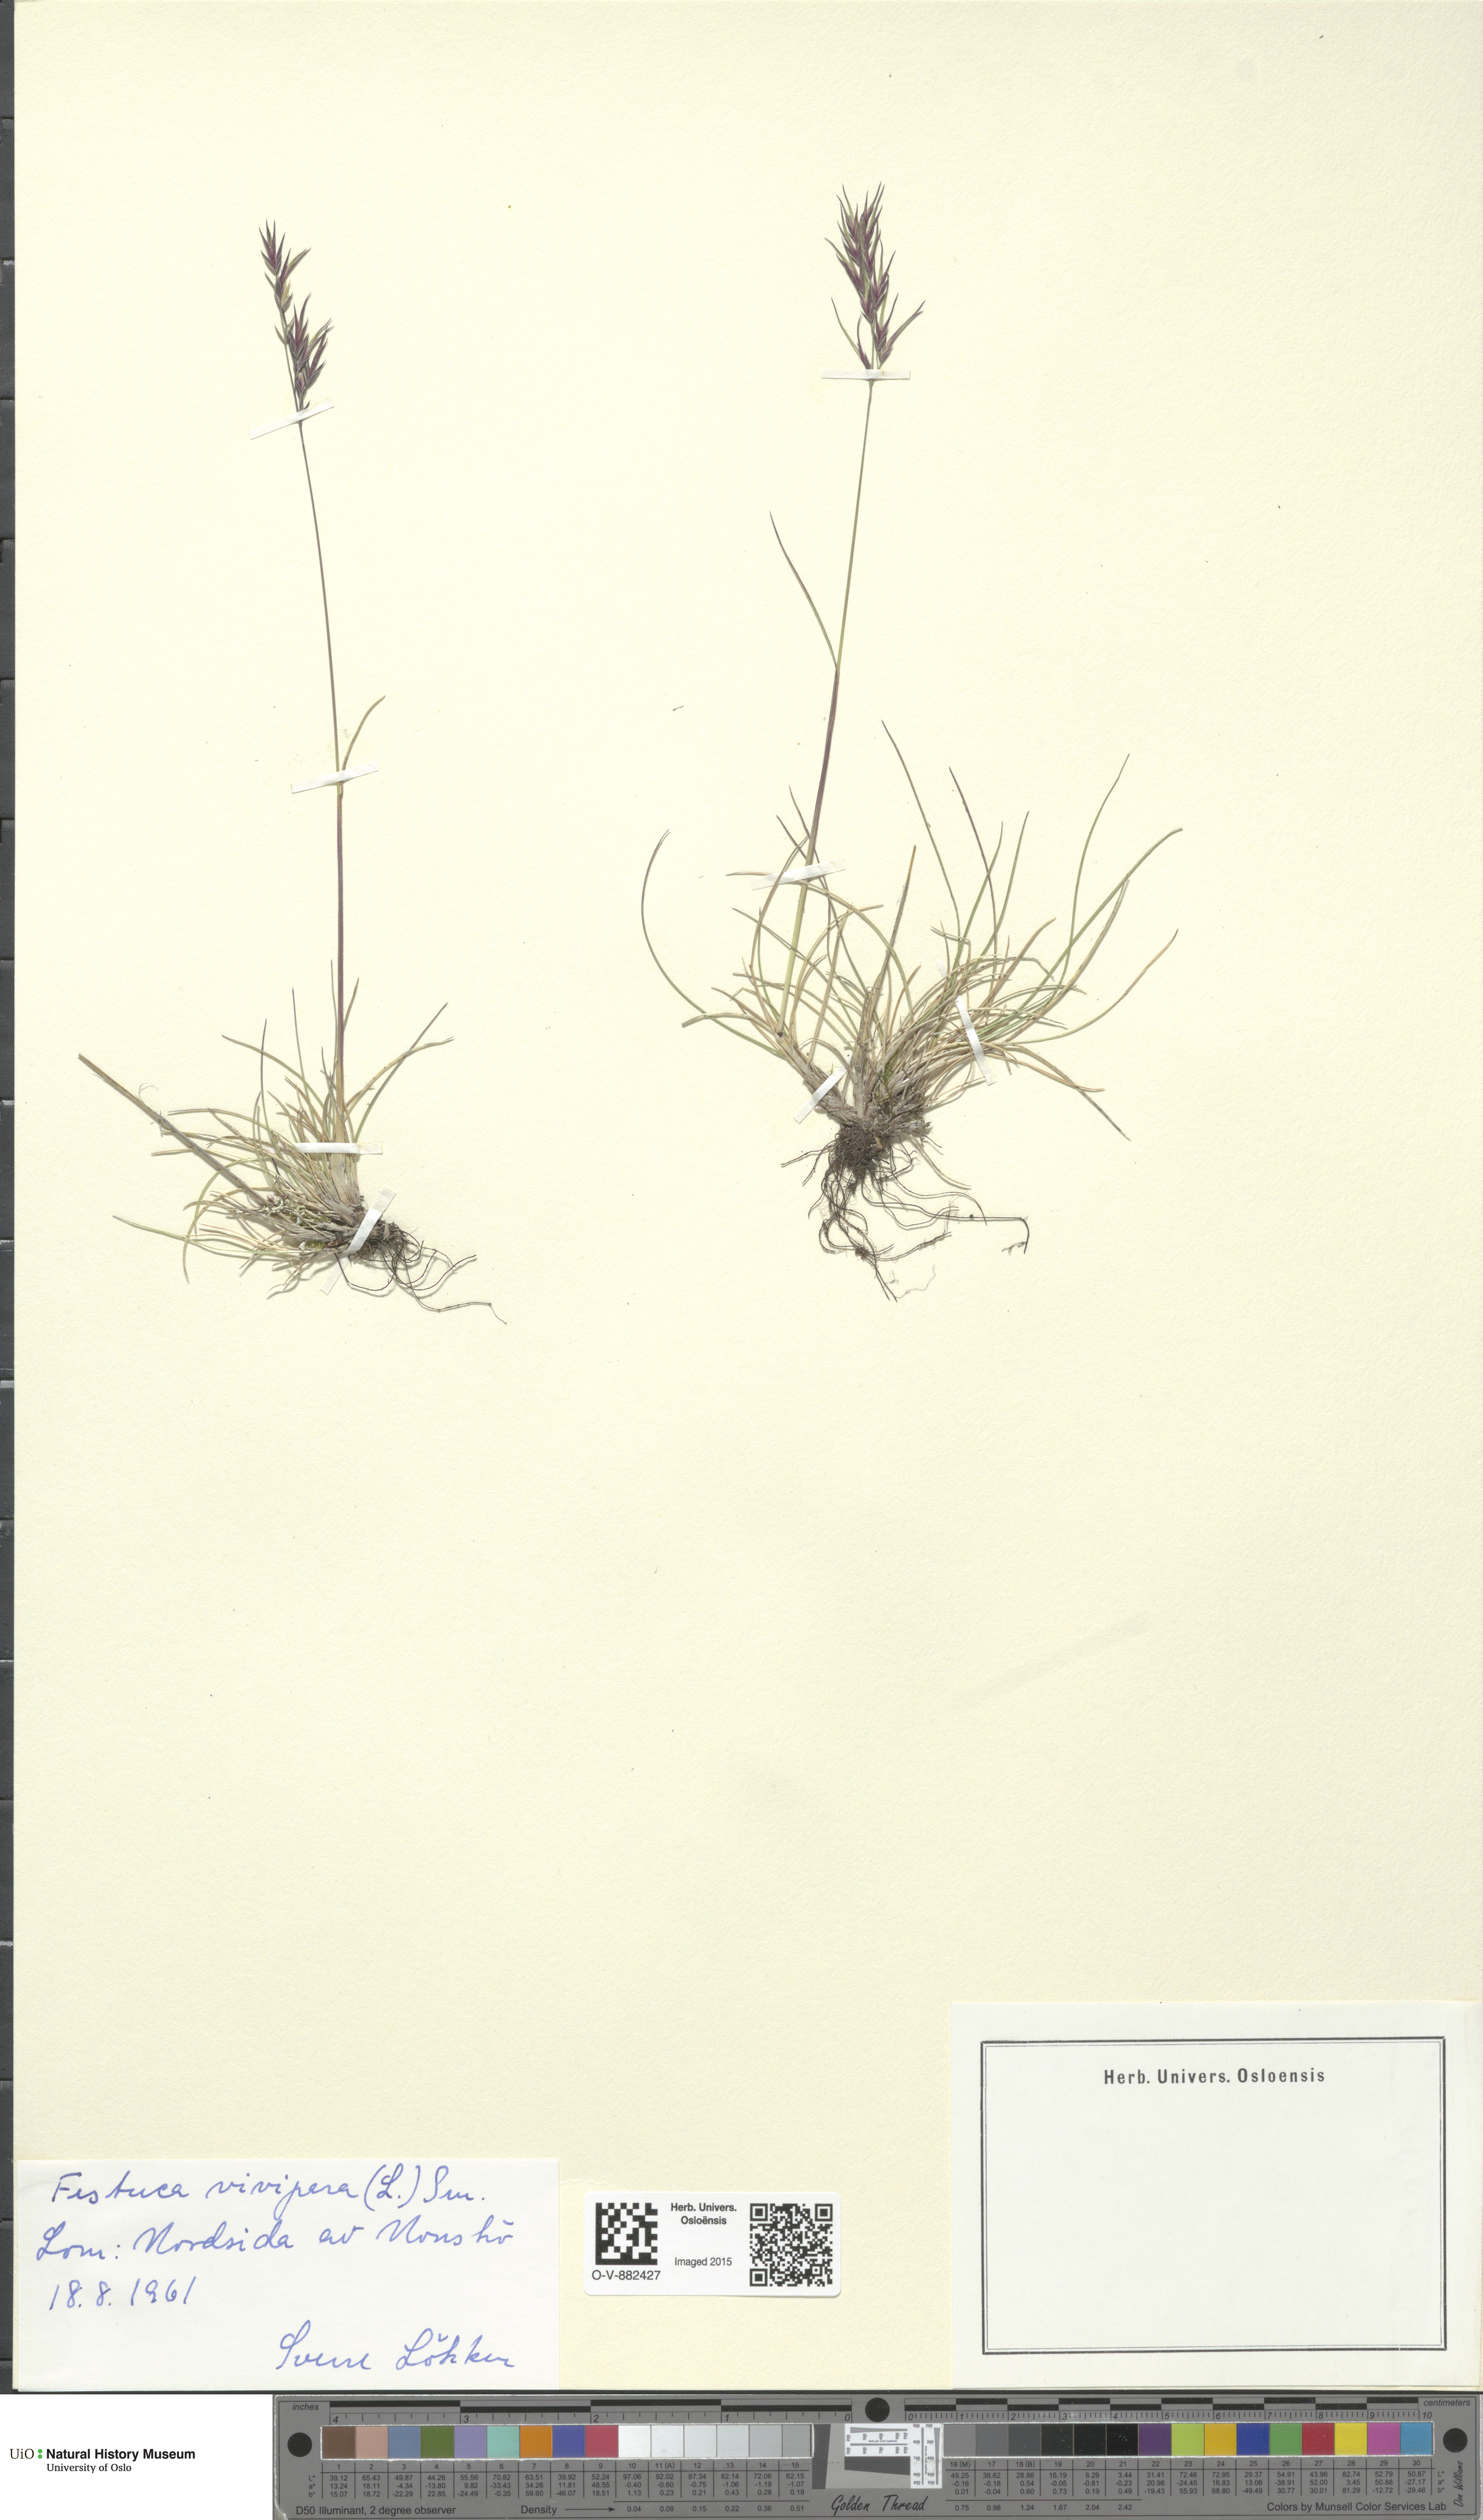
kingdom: Plantae
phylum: Tracheophyta
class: Liliopsida
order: Poales
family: Poaceae
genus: Festuca
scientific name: Festuca vivipara
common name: Viviparous sheep's-fescue
